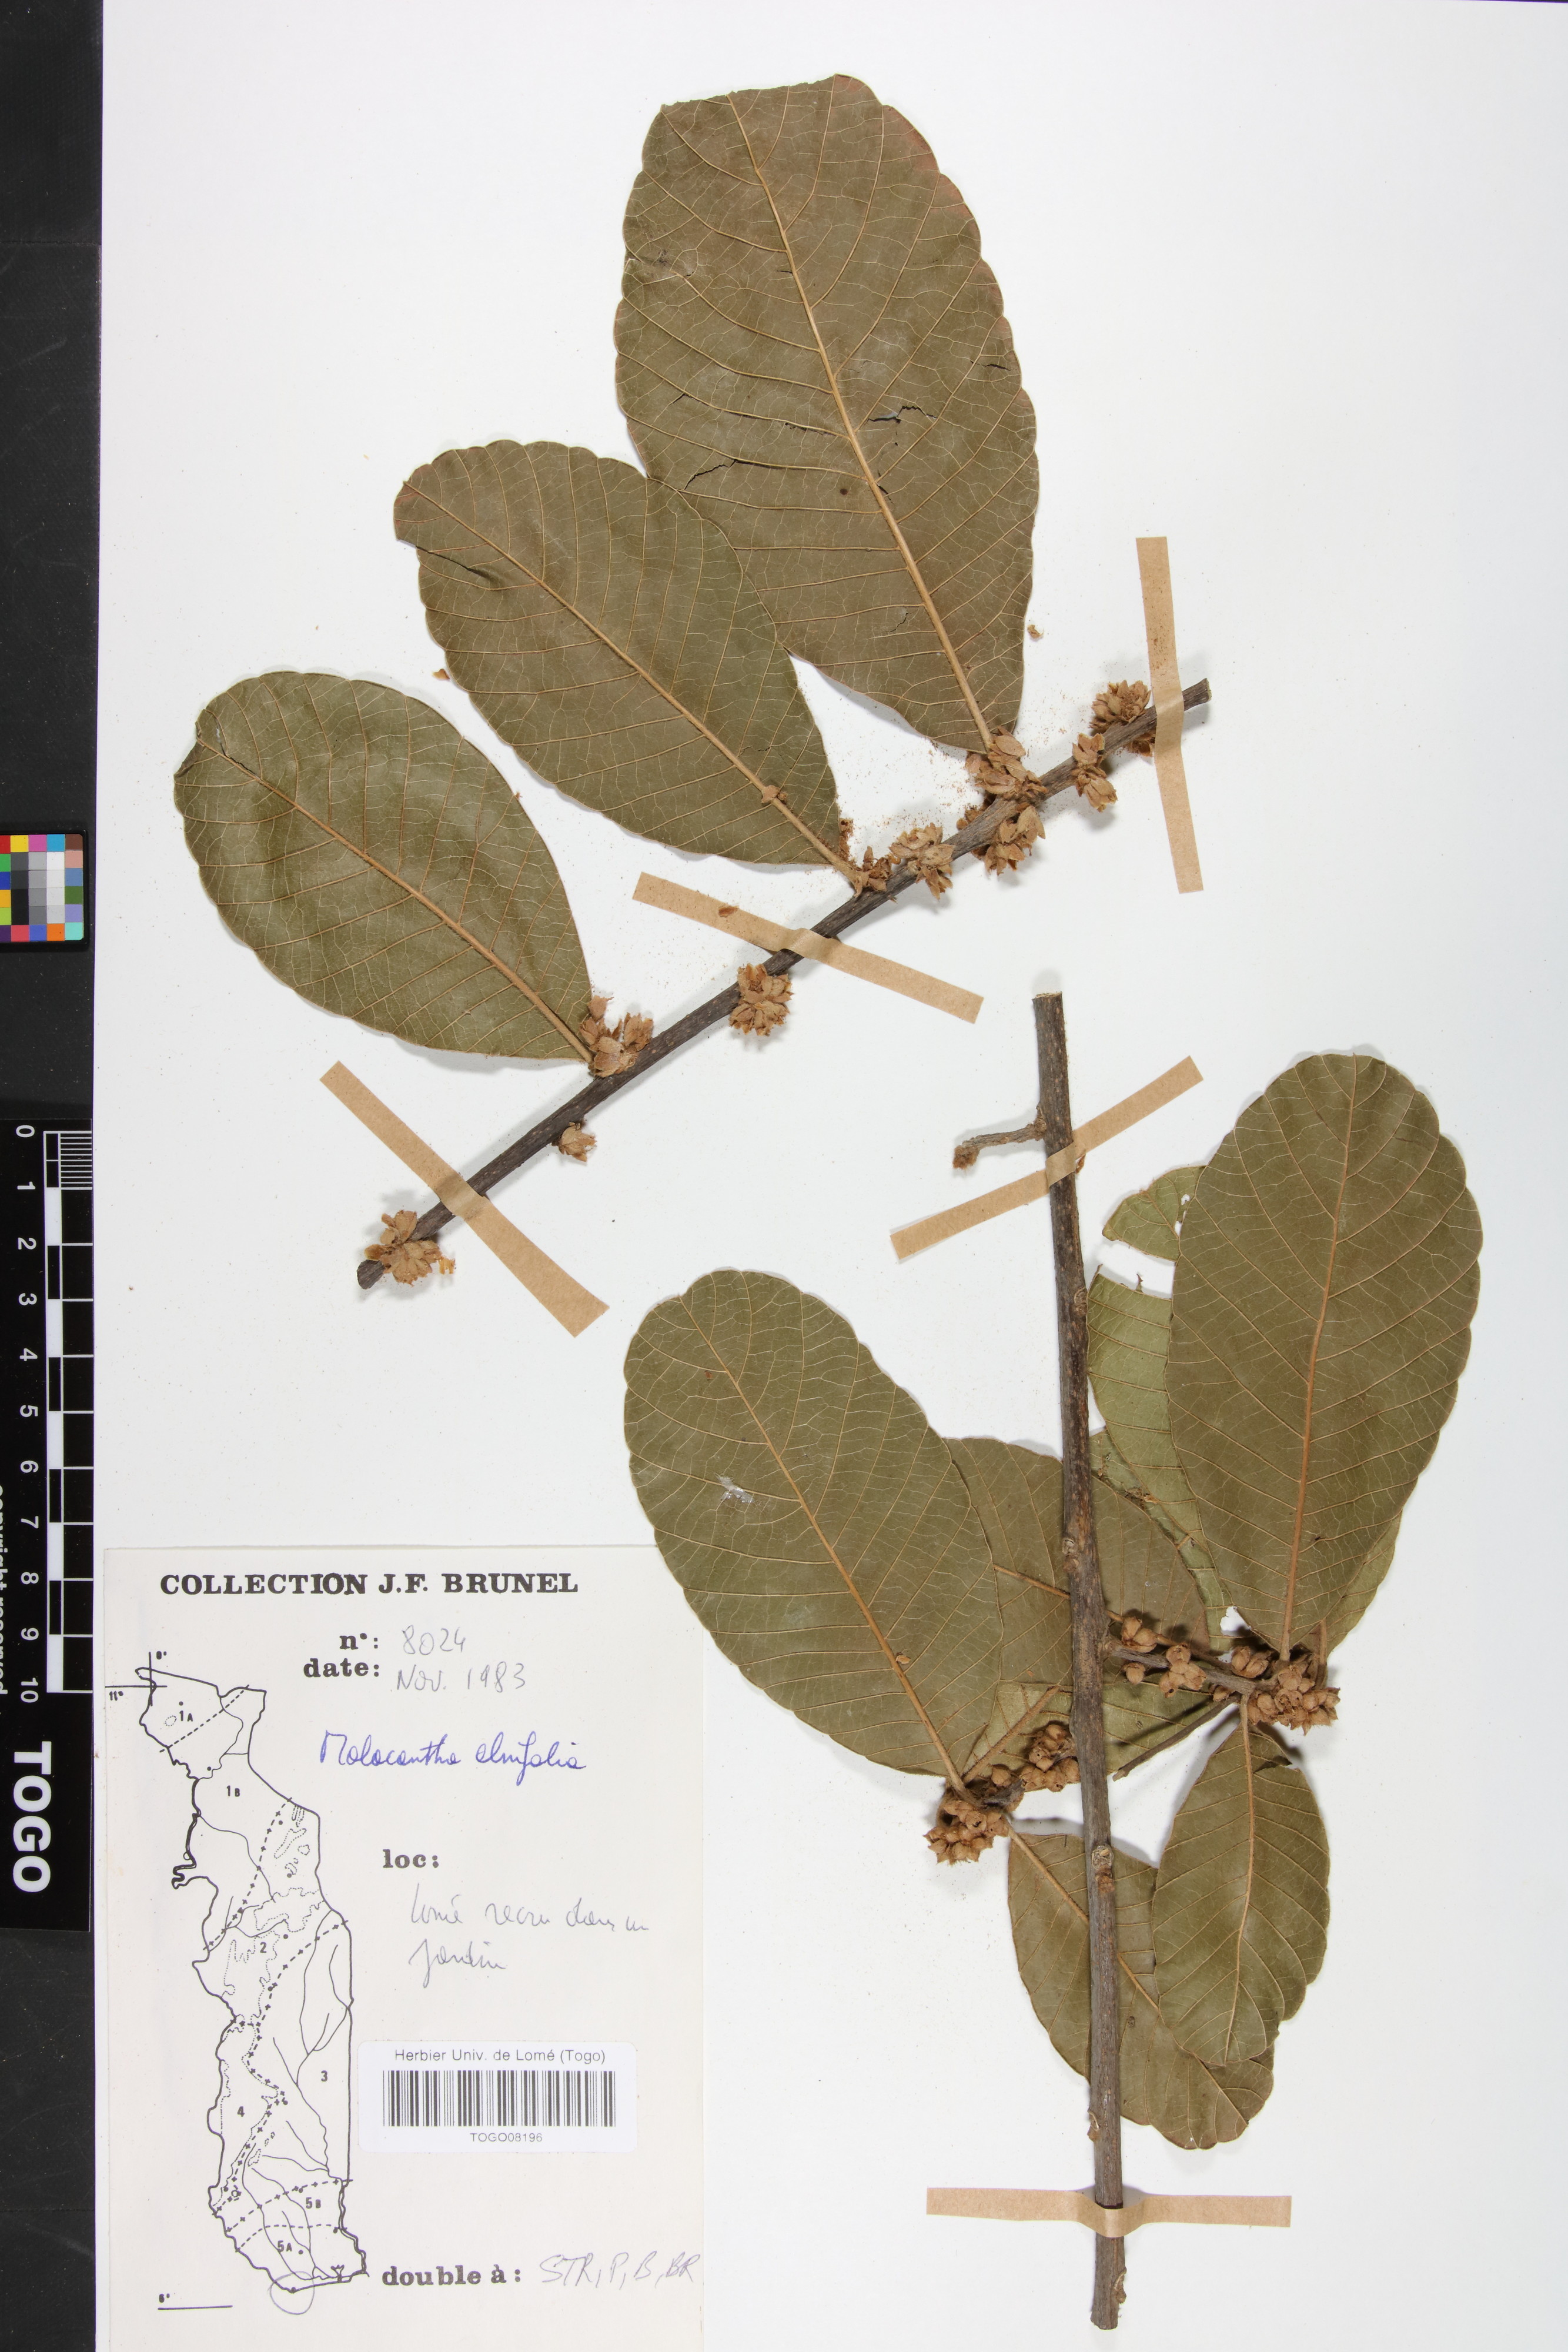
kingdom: Plantae
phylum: Tracheophyta
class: Magnoliopsida
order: Ericales
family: Sapotaceae
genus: Malacantha
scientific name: Malacantha alnifolia
